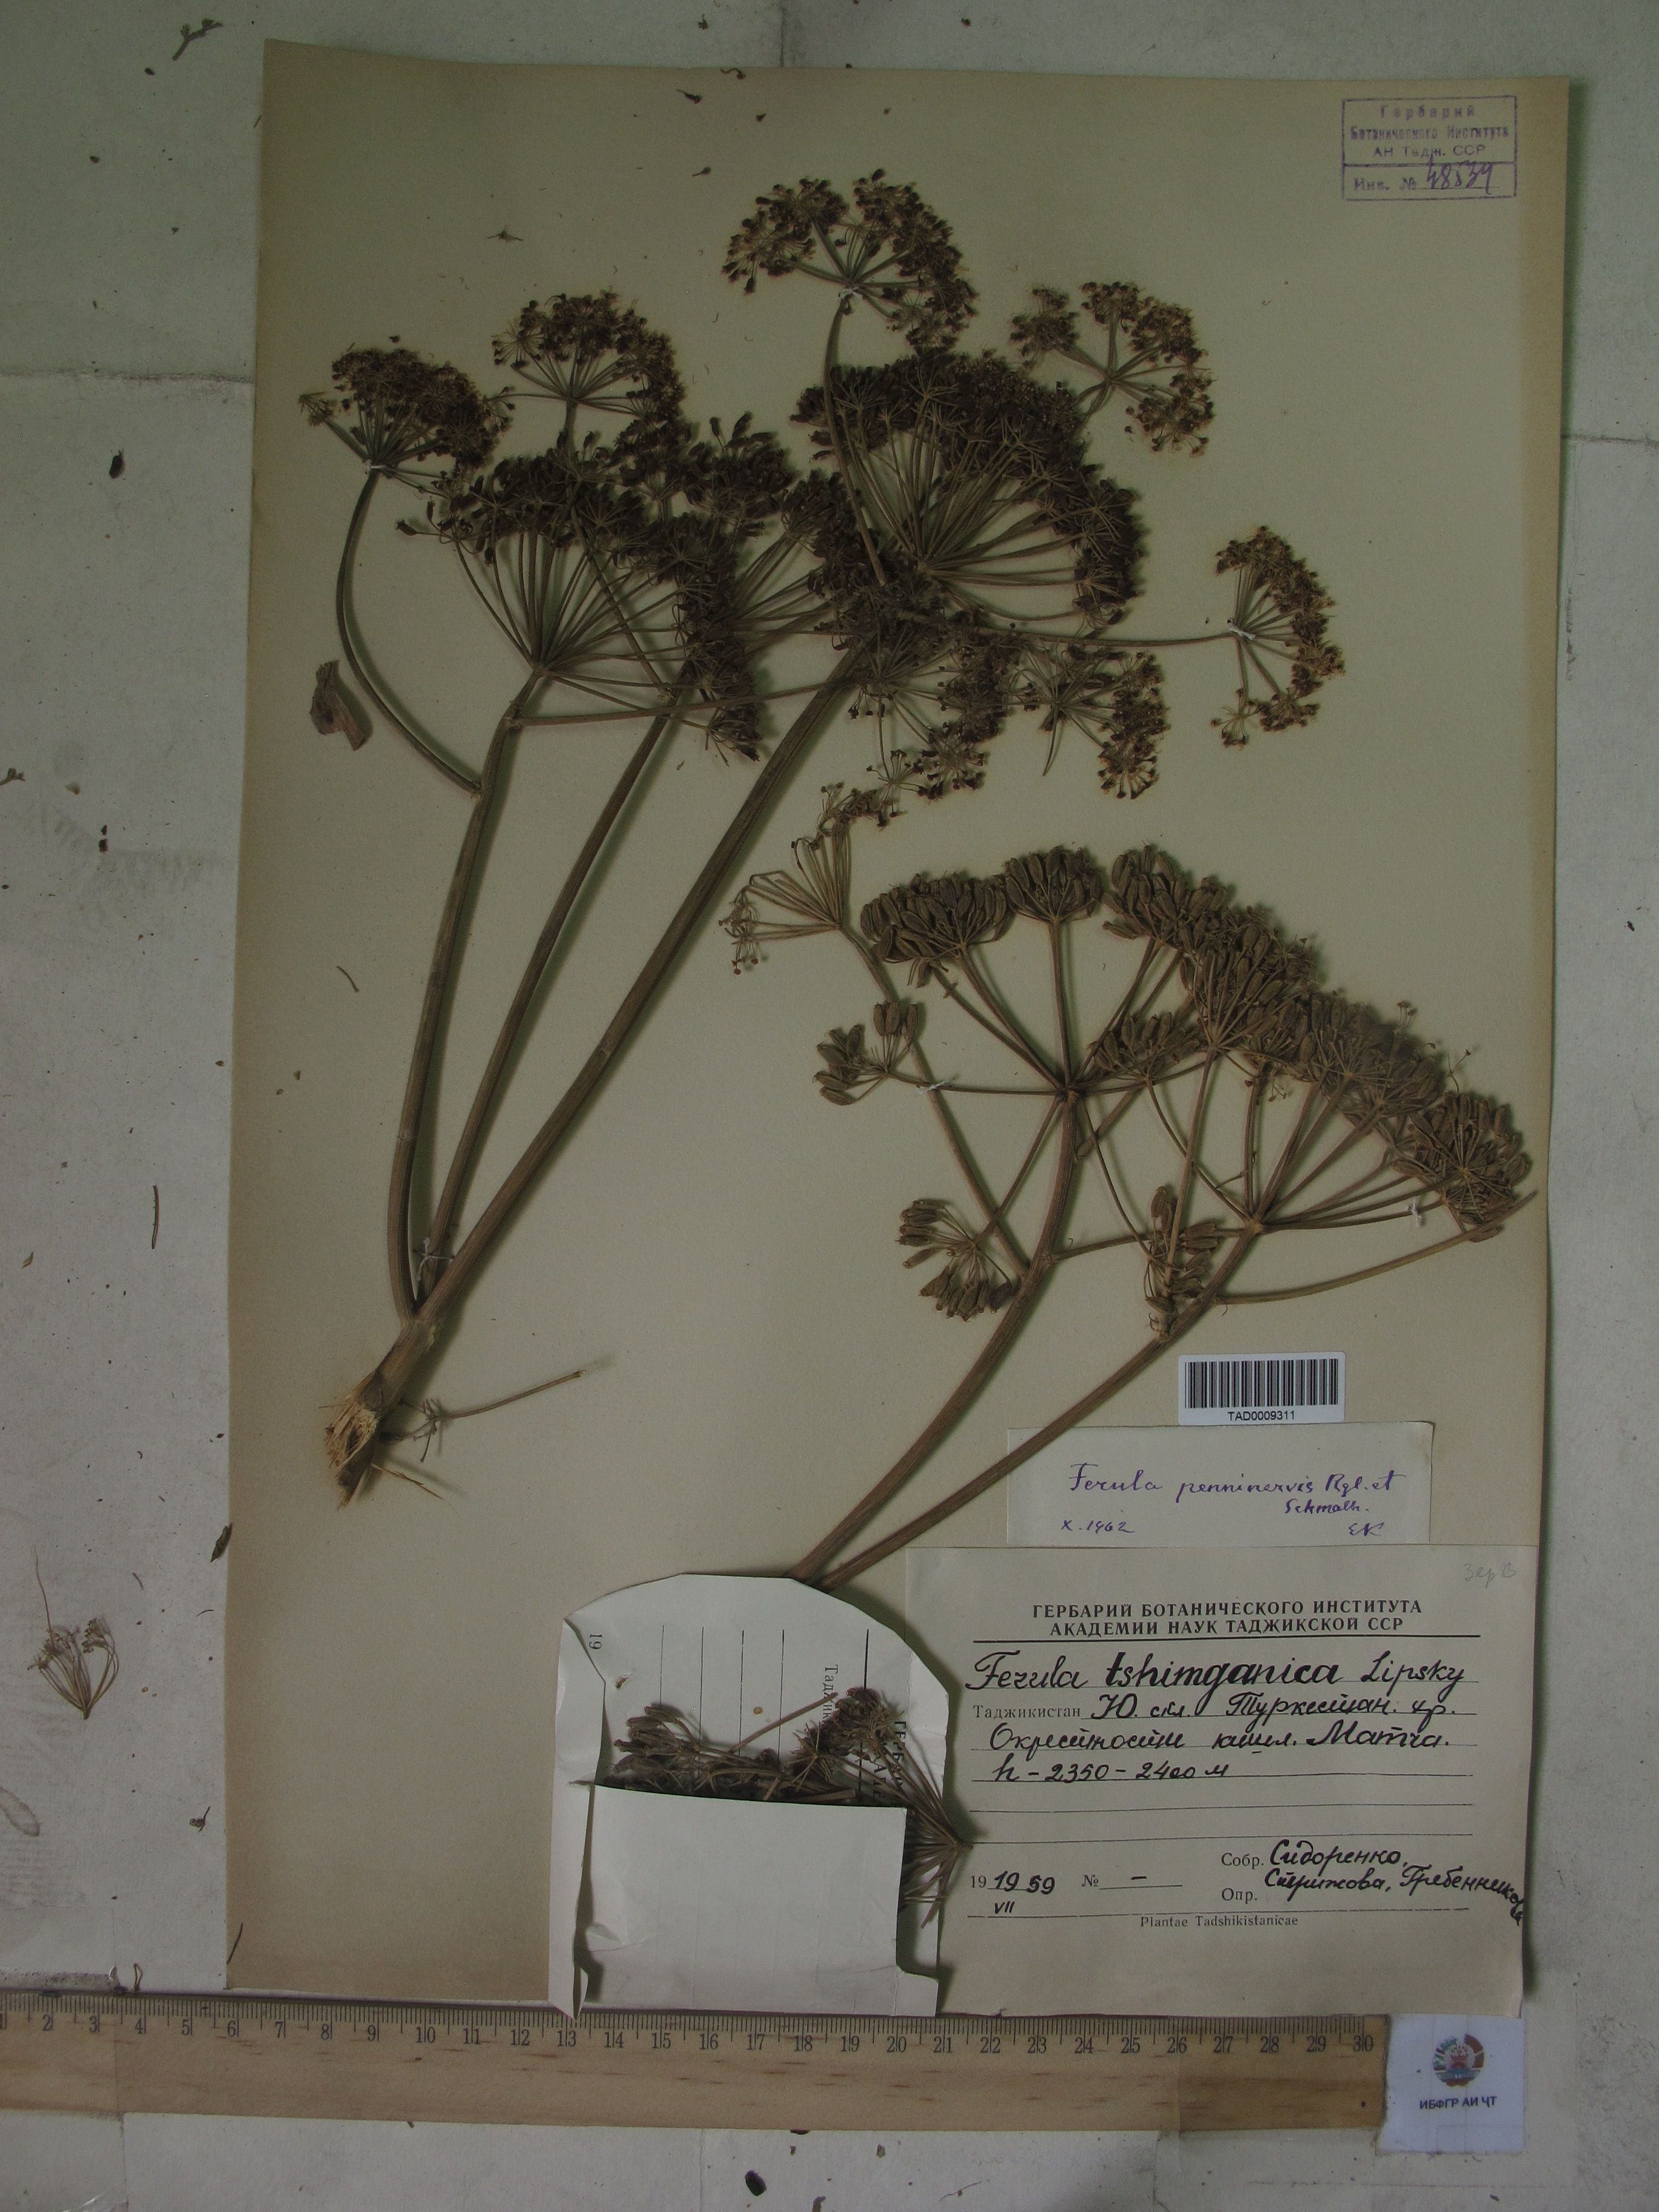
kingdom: Plantae
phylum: Tracheophyta
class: Magnoliopsida
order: Apiales
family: Apiaceae
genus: Ferula
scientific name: Ferula tschimganica
